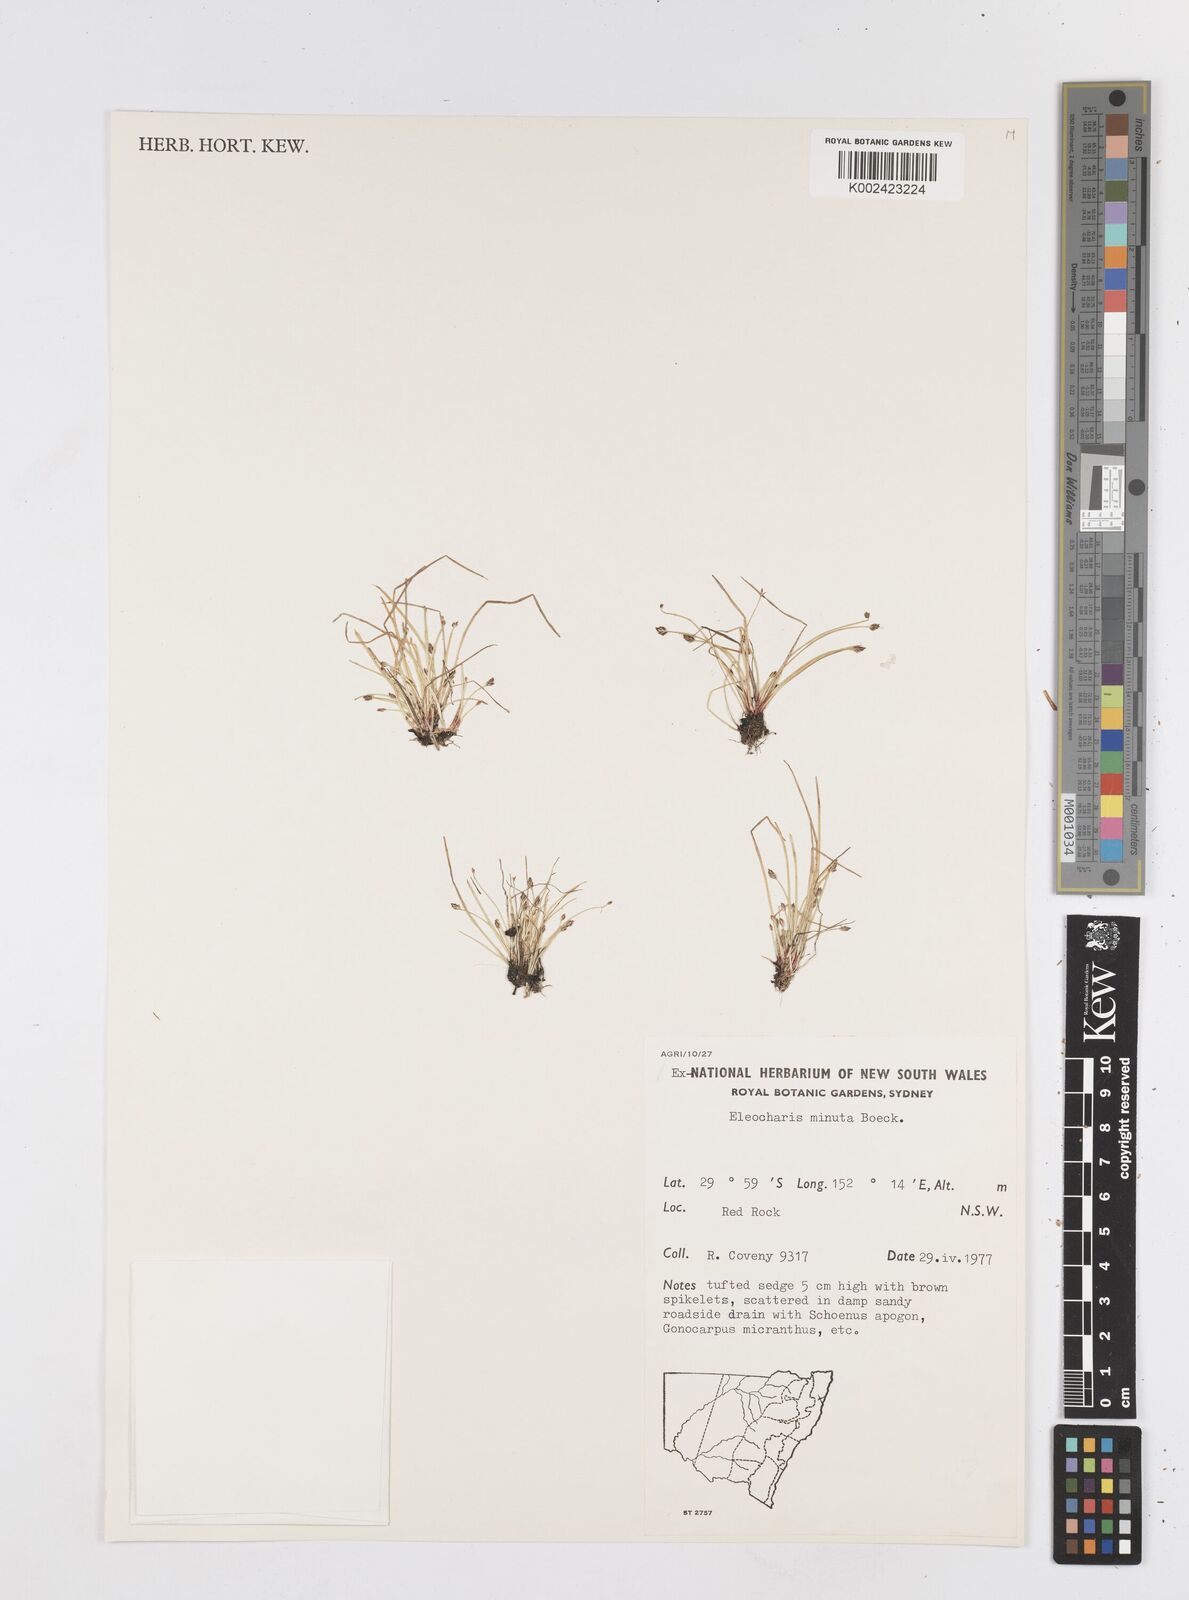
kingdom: Plantae
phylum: Tracheophyta
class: Liliopsida
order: Poales
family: Cyperaceae
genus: Eleocharis
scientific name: Eleocharis minuta
